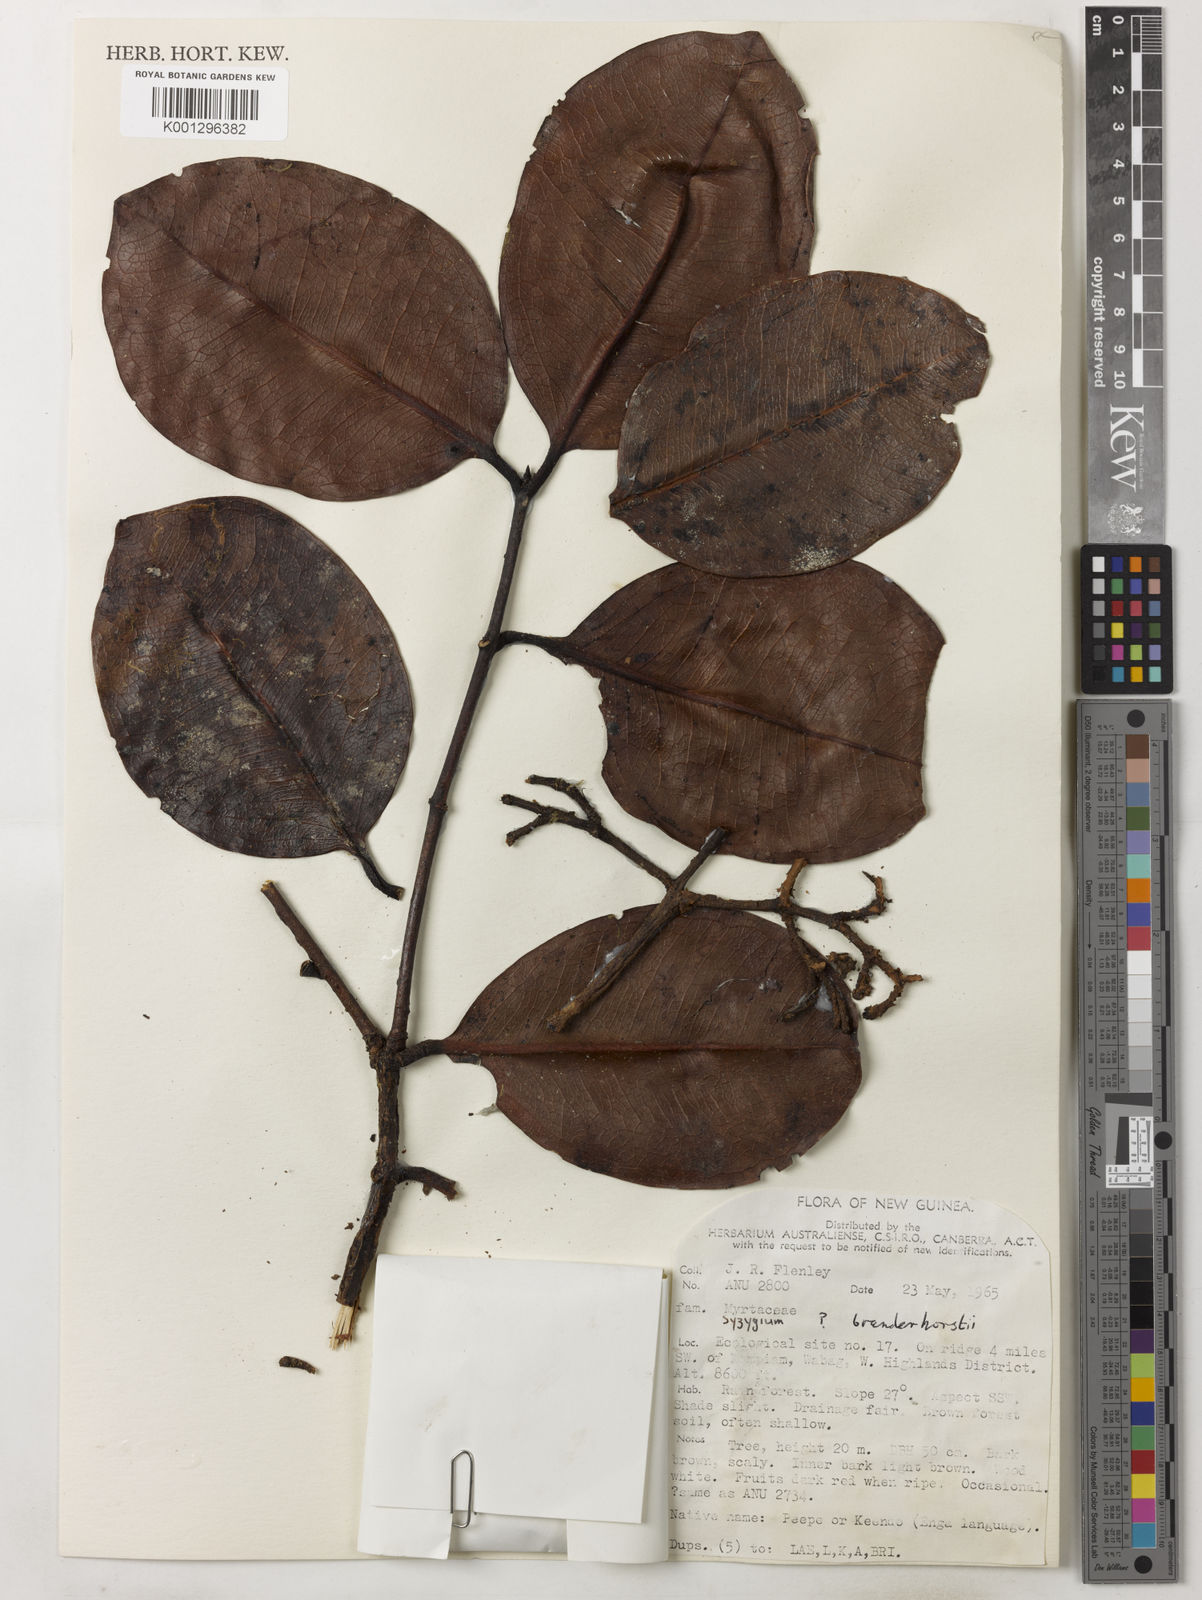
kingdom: Plantae
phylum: Tracheophyta
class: Magnoliopsida
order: Myrtales
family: Myrtaceae
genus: Syzygium
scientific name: Syzygium branderhorstii
